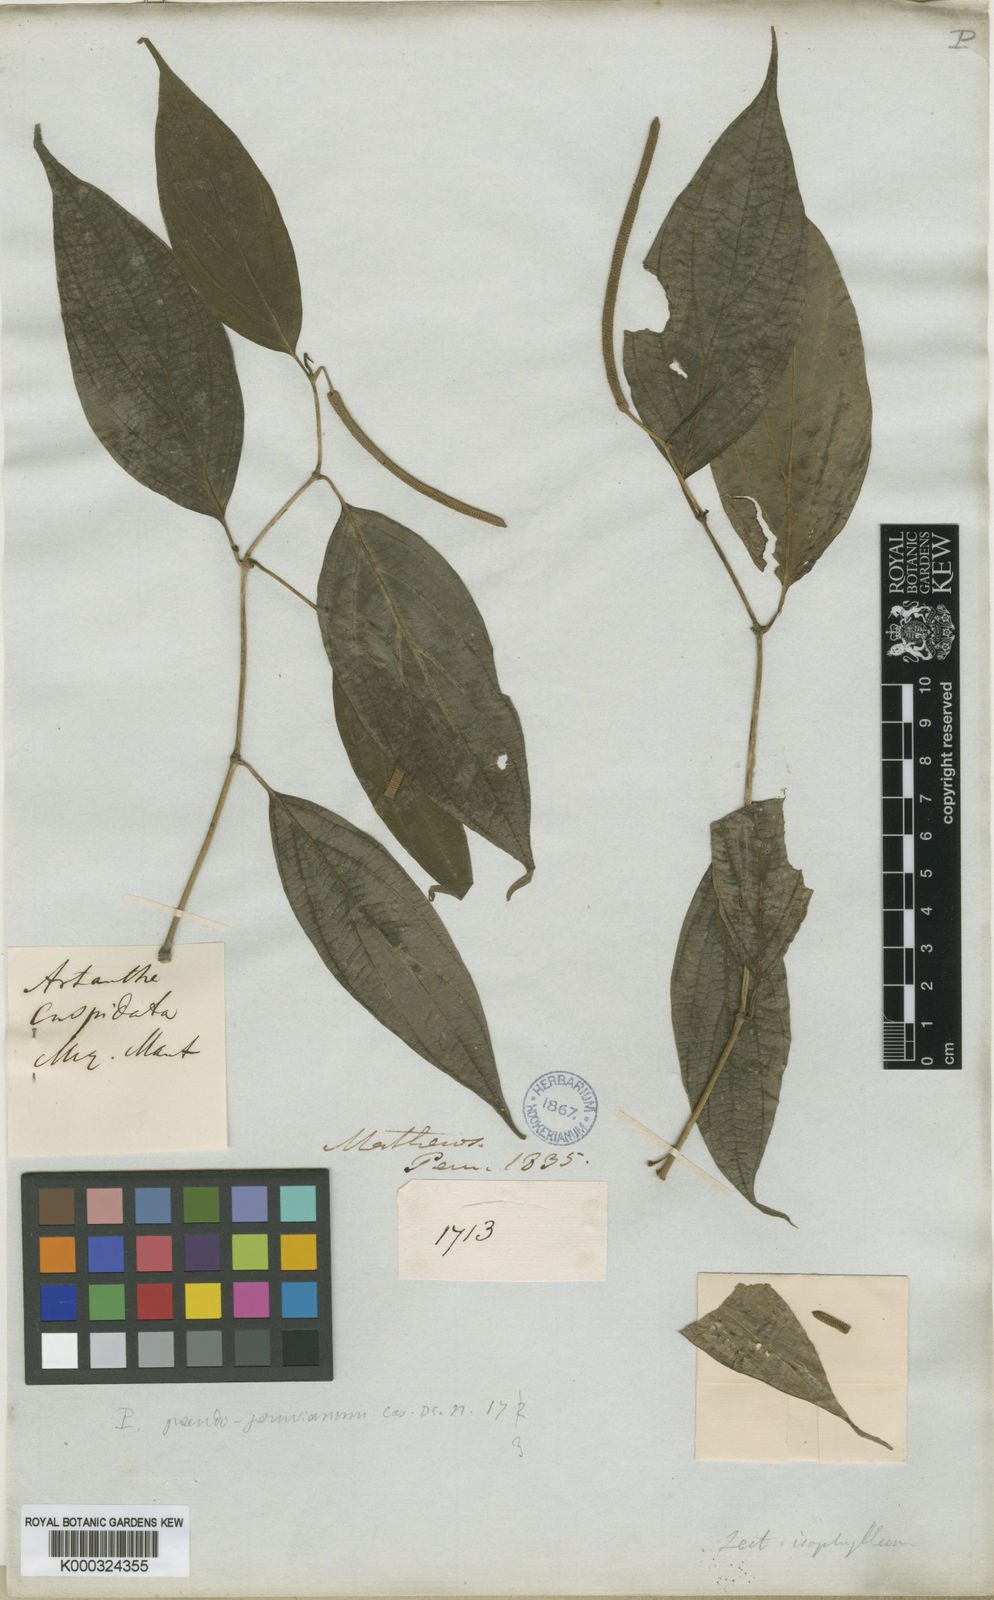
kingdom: Plantae
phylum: Tracheophyta
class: Magnoliopsida
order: Piperales
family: Piperaceae
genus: Piper
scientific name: Piper pseudoperuvianum
